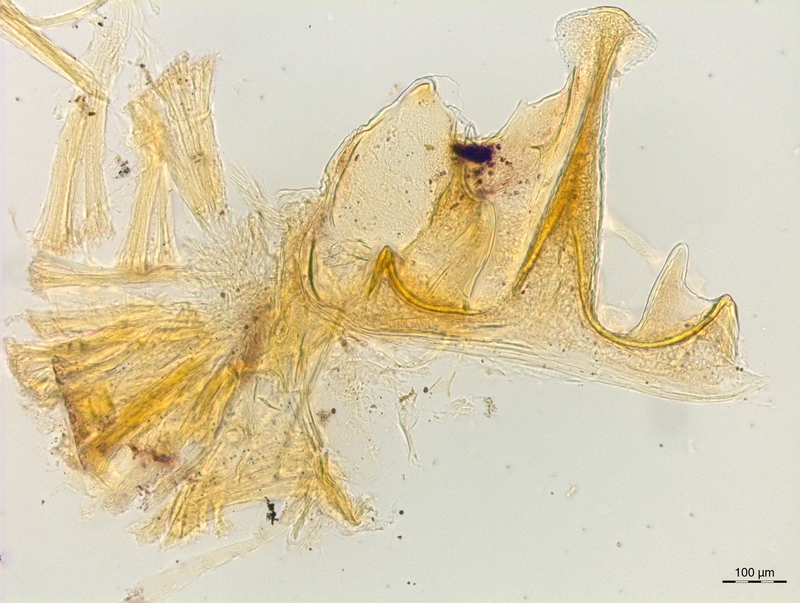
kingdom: Animalia
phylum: Arthropoda
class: Diplopoda
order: Chordeumatida
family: Craspedosomatidae
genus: Craspedosoma
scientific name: Craspedosoma rawlinsii
